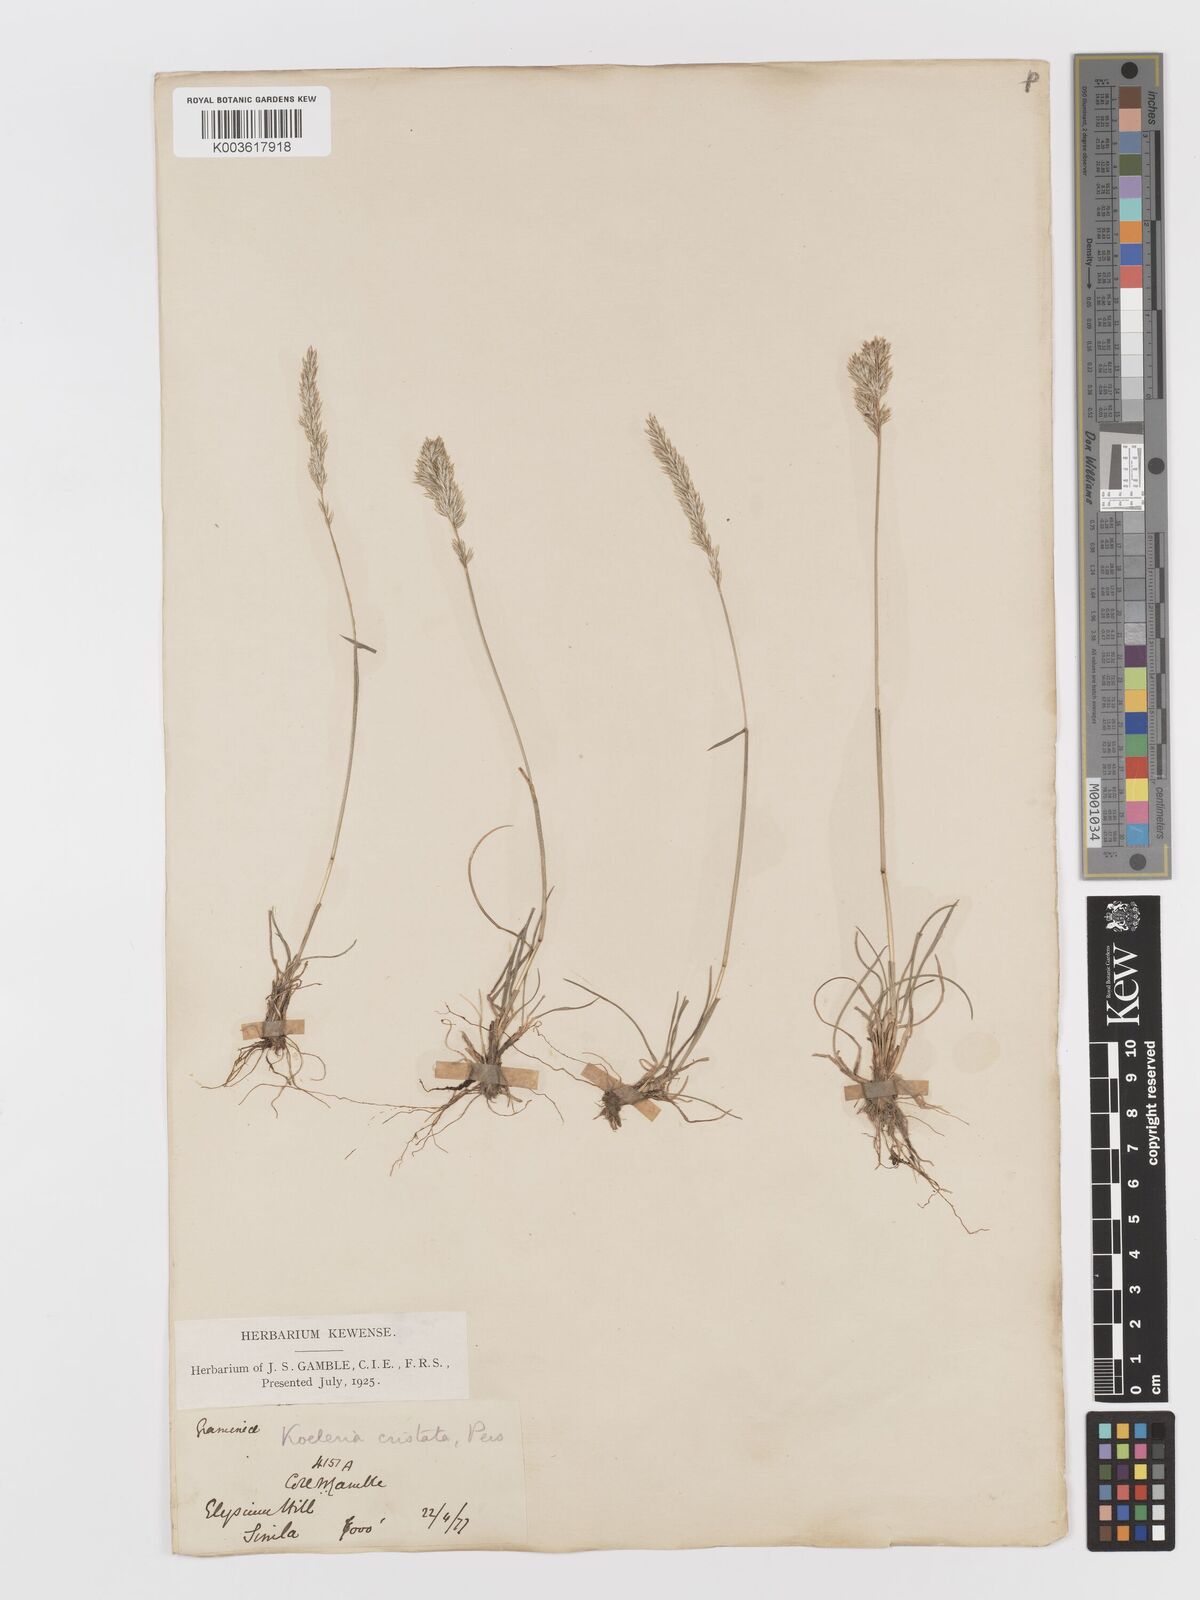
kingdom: Plantae
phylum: Tracheophyta
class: Liliopsida
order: Poales
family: Poaceae
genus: Koeleria
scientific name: Koeleria
